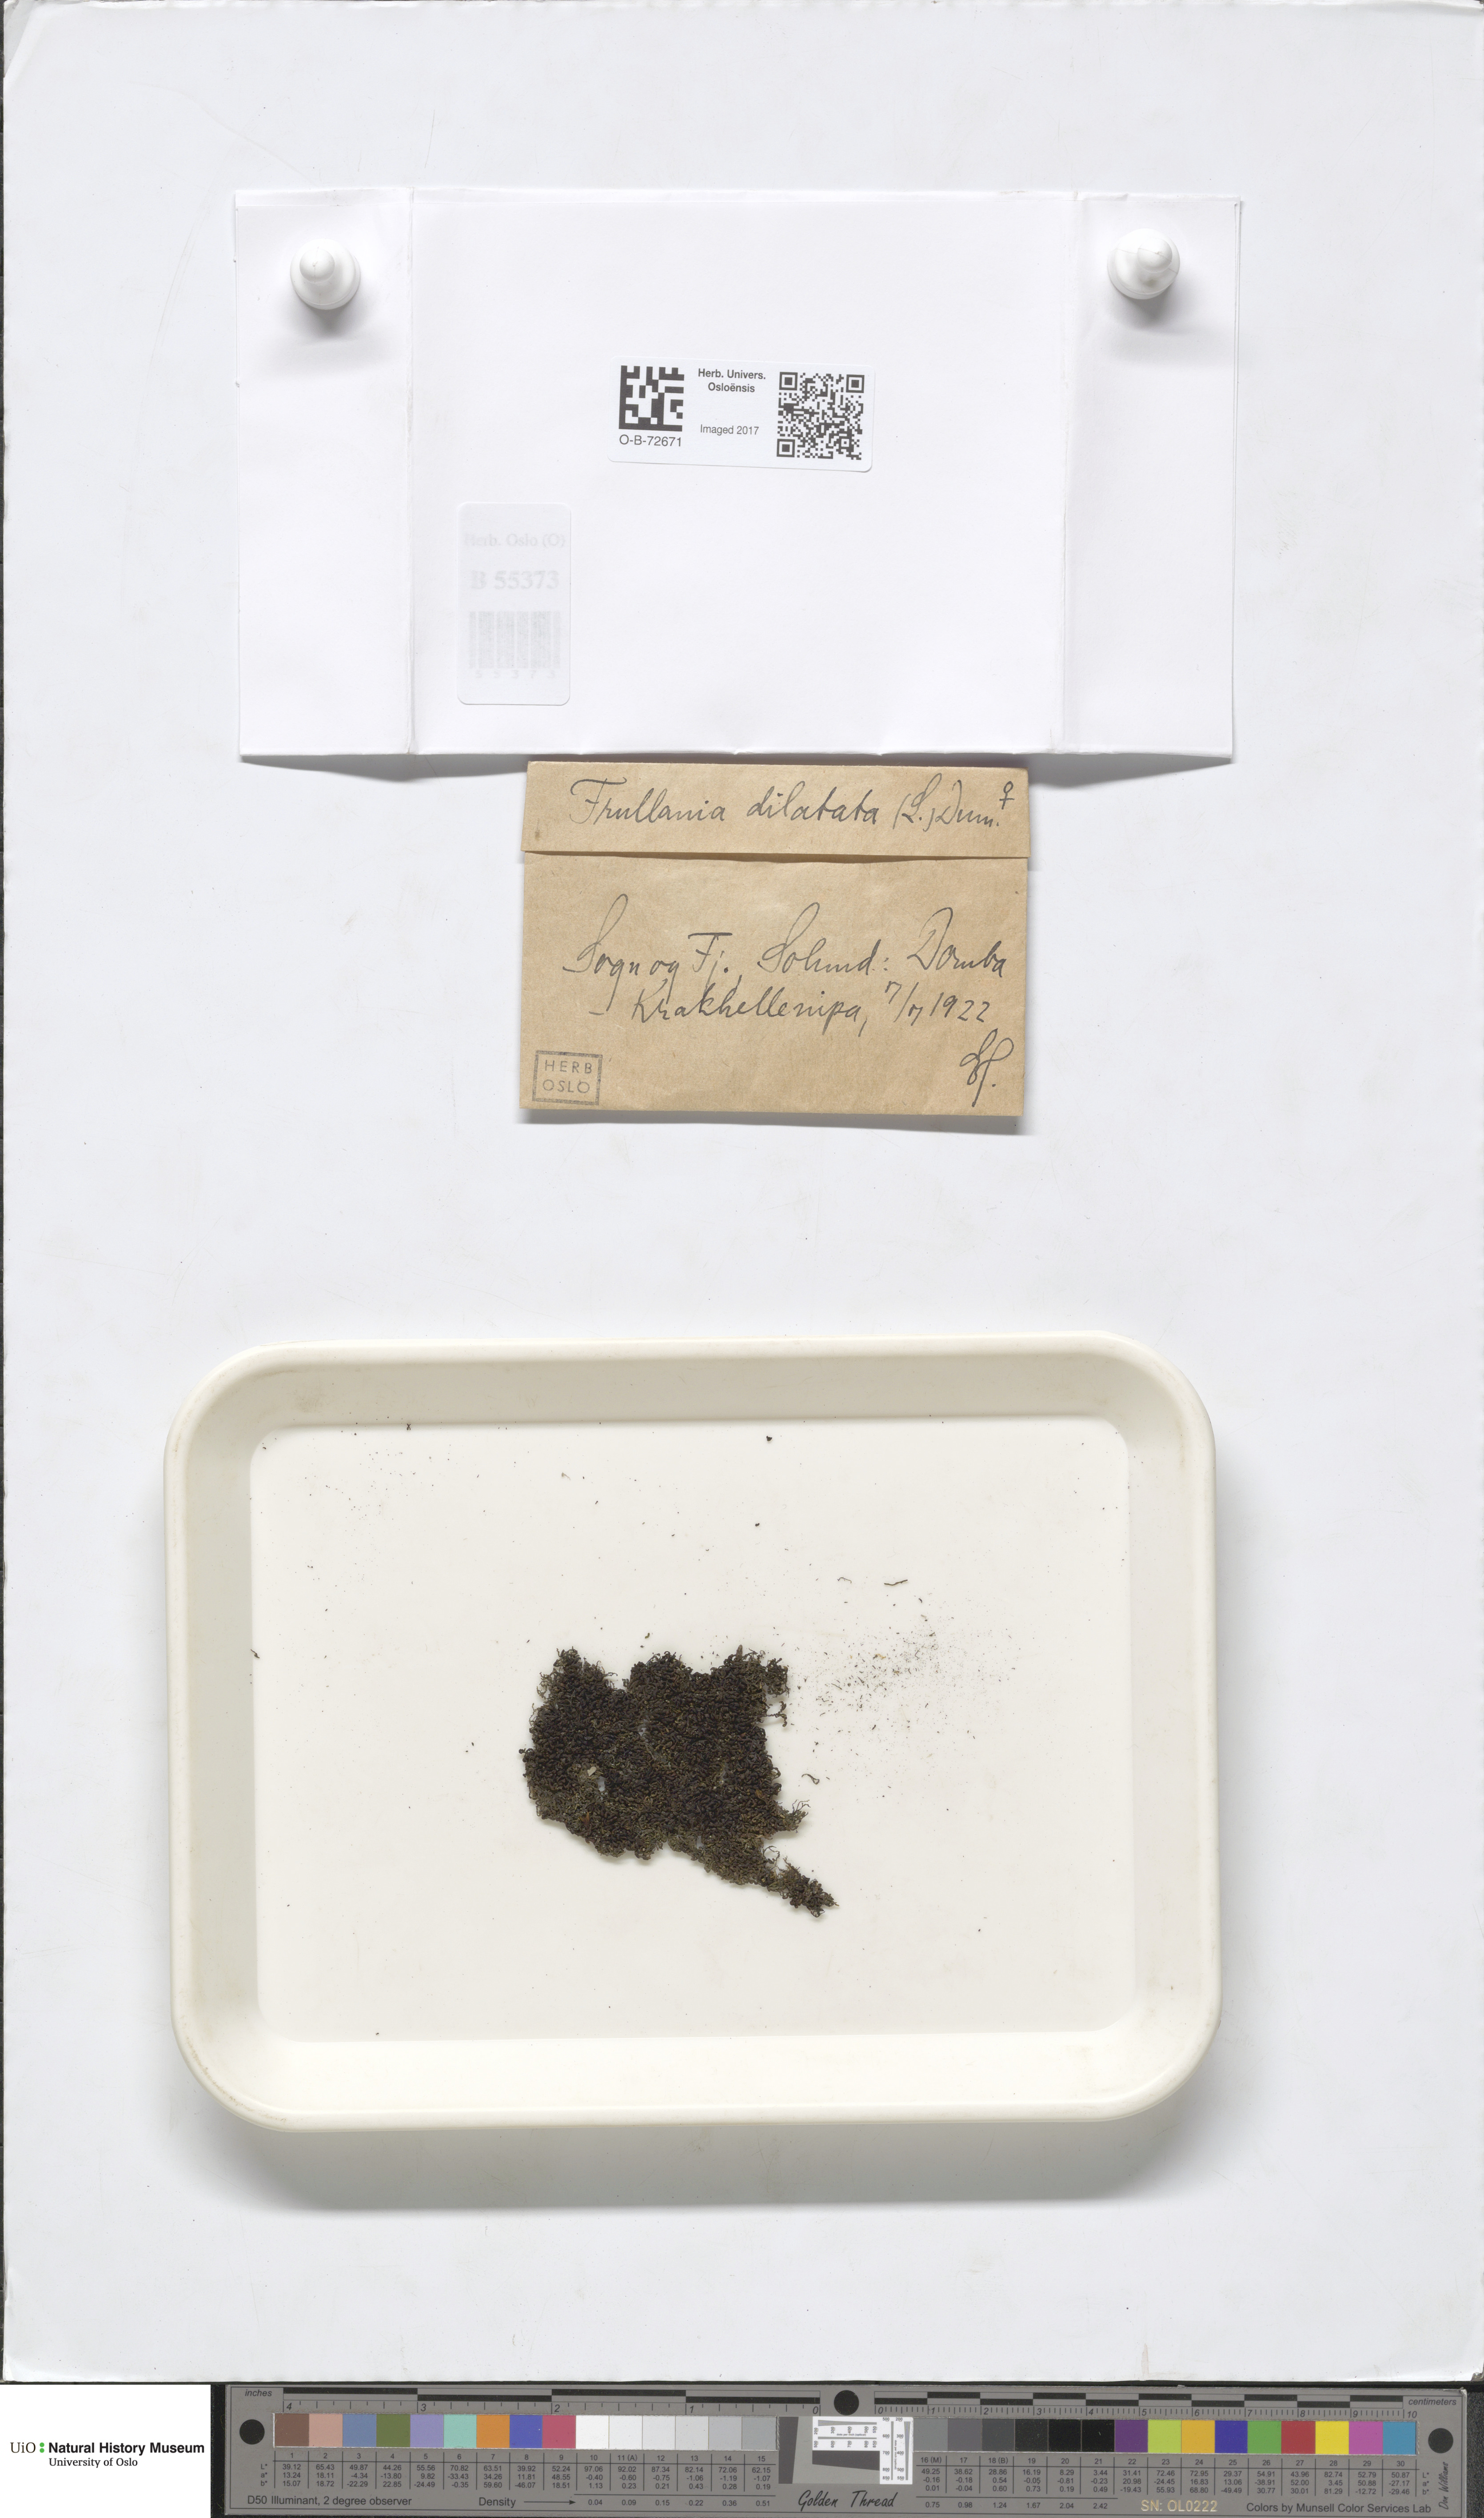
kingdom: Plantae
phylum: Marchantiophyta
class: Jungermanniopsida
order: Porellales
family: Frullaniaceae
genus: Frullania
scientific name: Frullania dilatata
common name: Dilated scalewort
